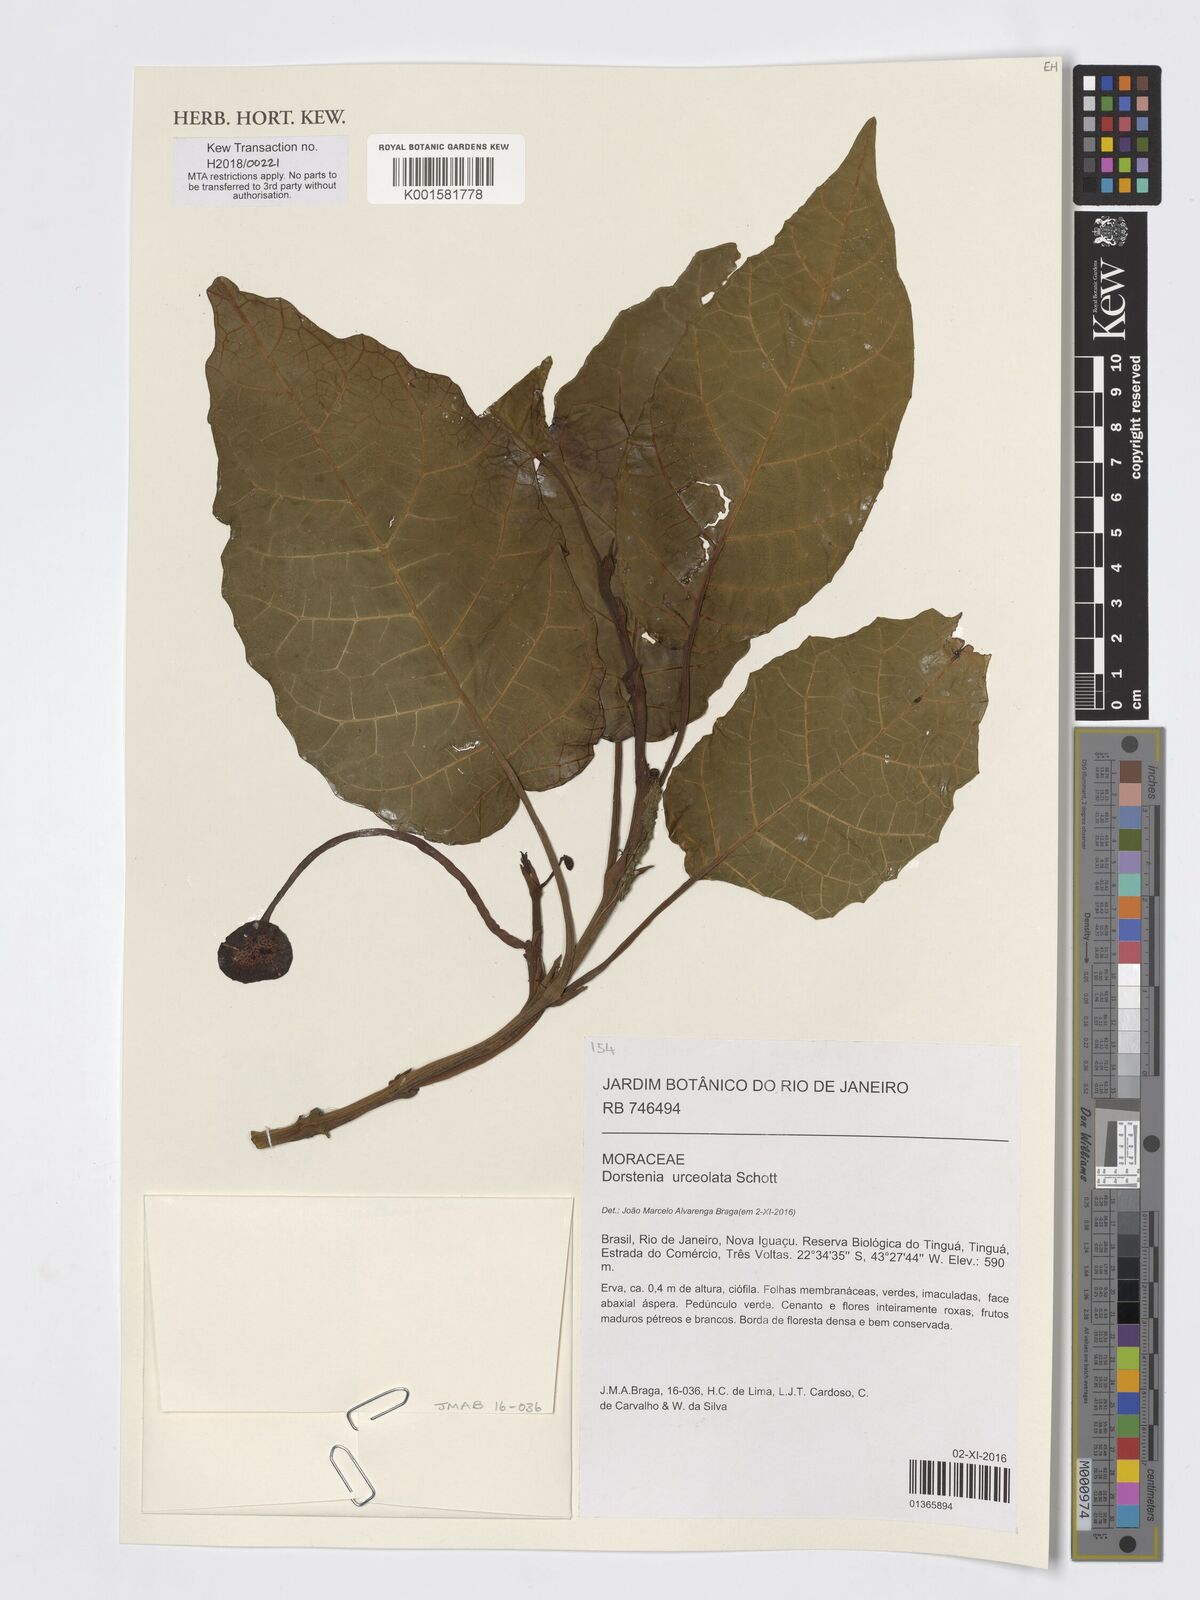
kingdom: Plantae
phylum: Tracheophyta
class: Magnoliopsida
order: Rosales
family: Moraceae
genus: Dorstenia
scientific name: Dorstenia urceolata
